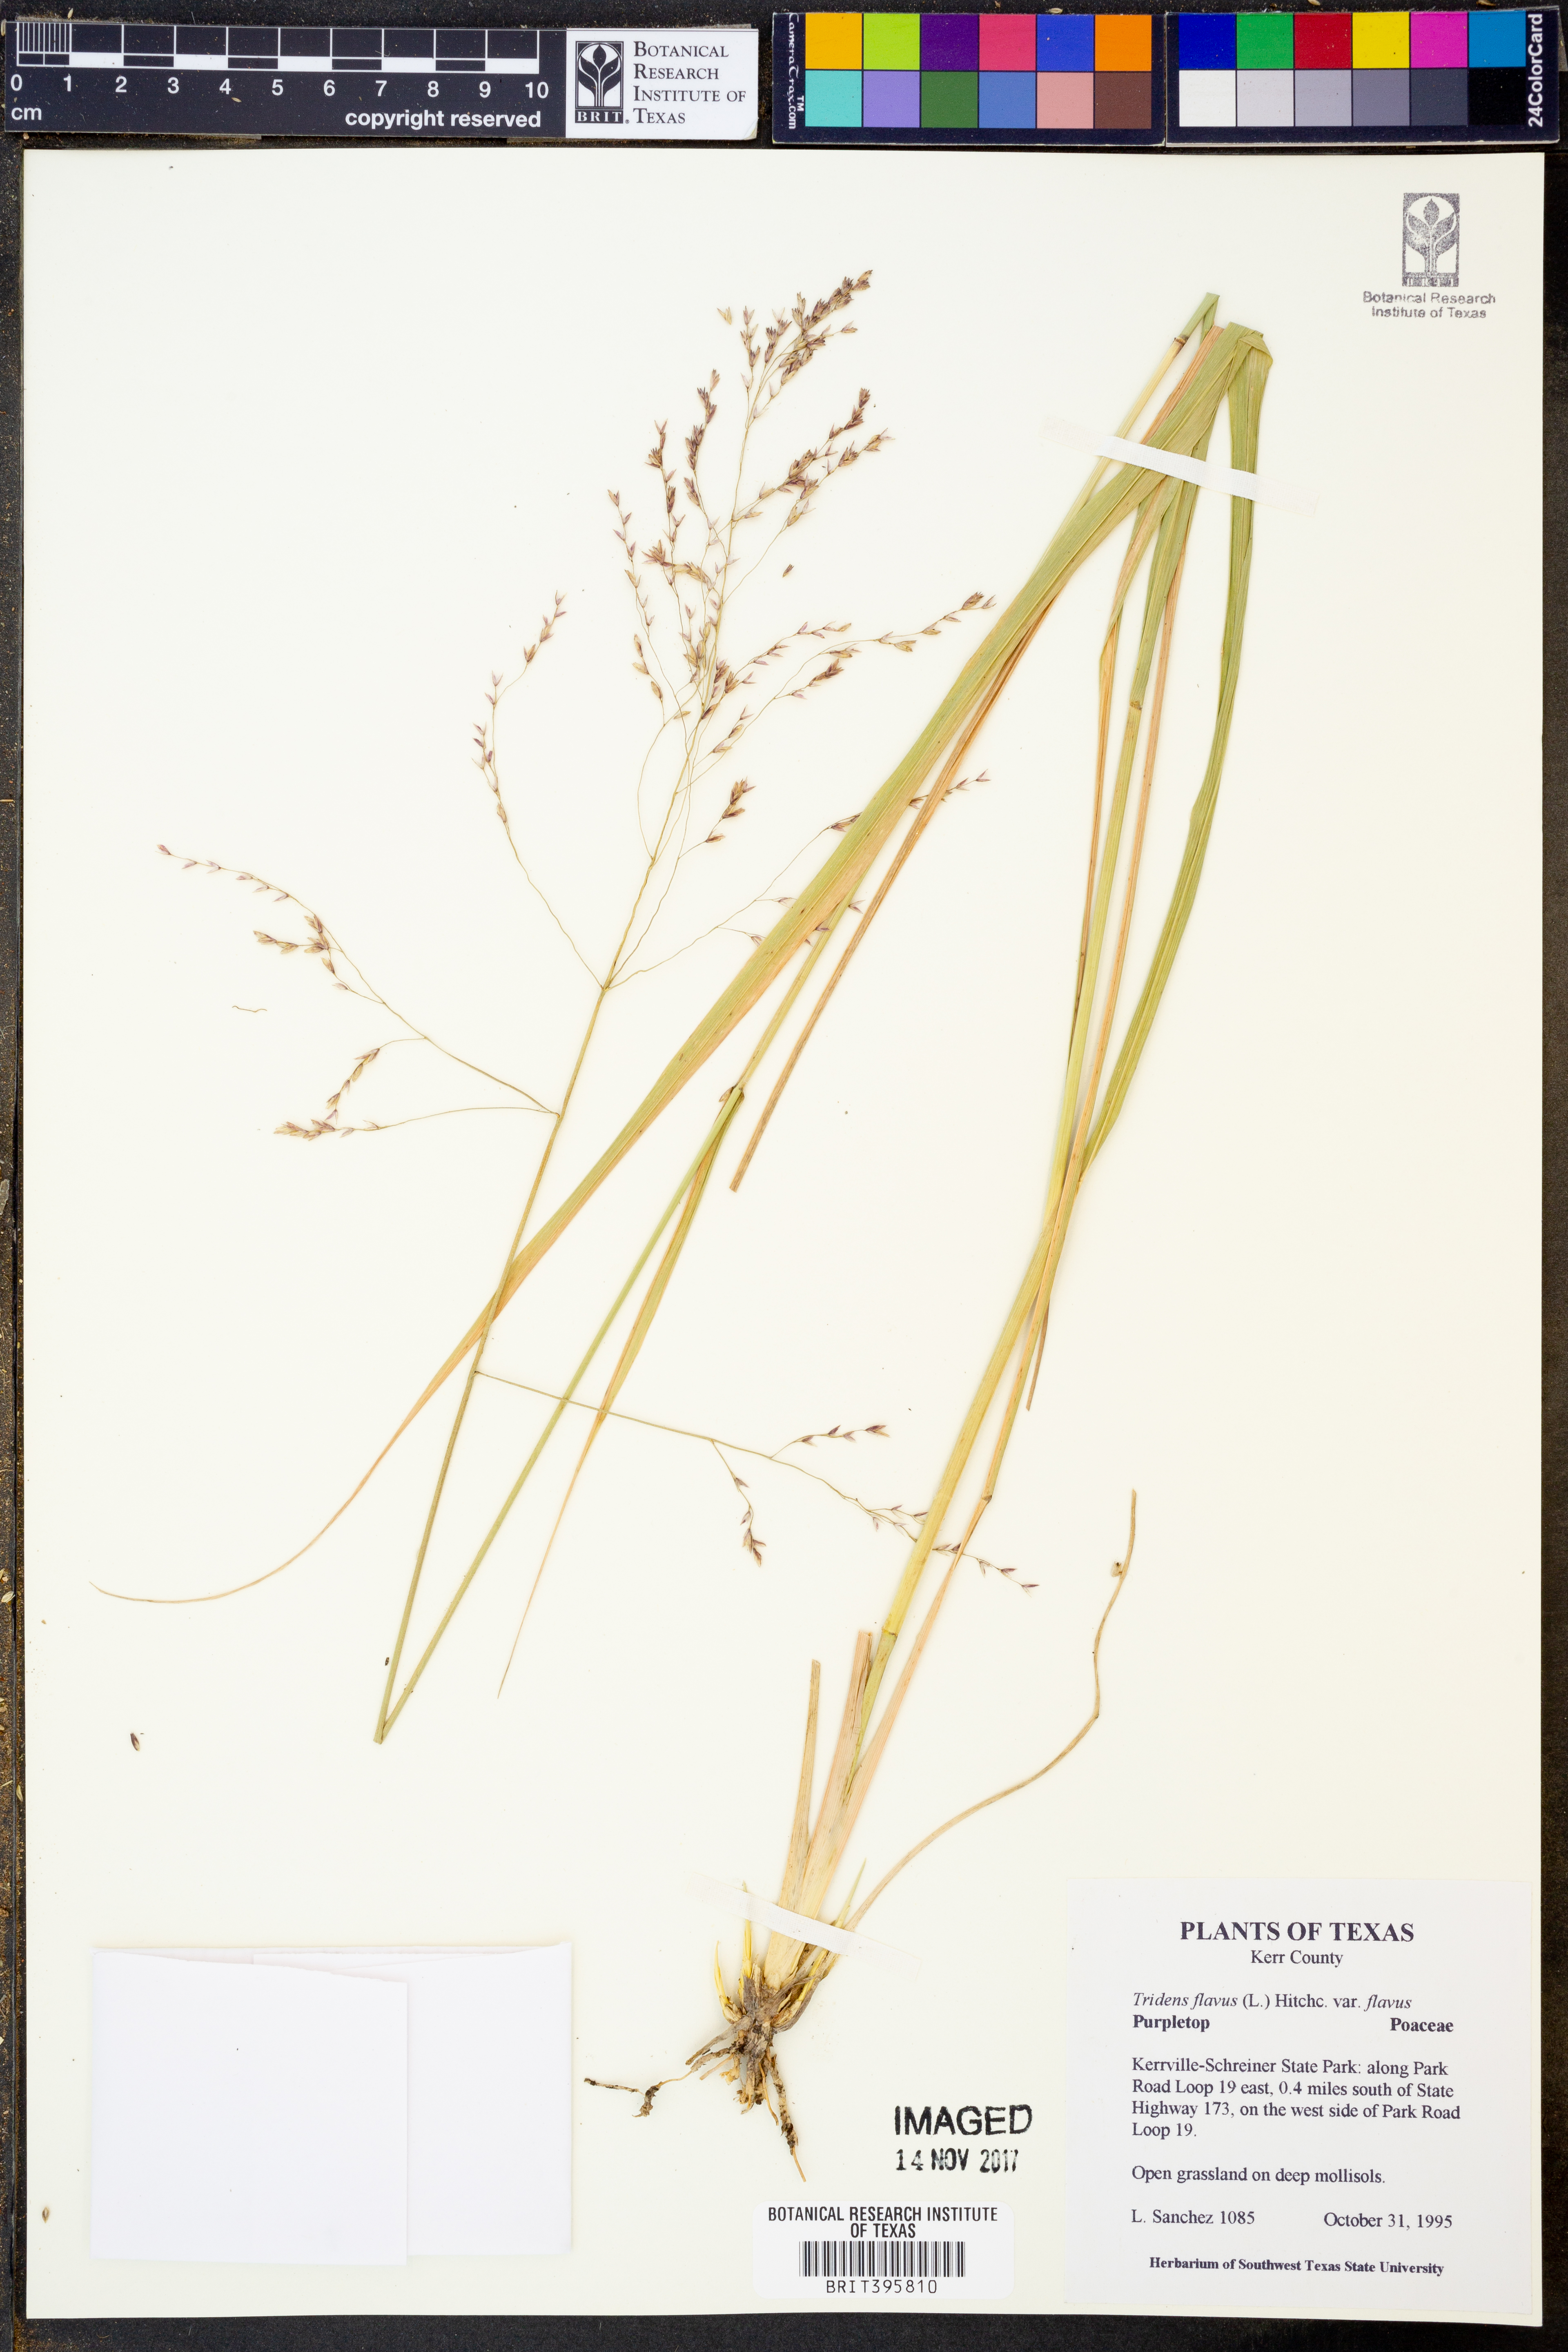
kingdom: Plantae
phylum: Tracheophyta
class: Liliopsida
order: Poales
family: Poaceae
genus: Tridens
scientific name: Tridens flavus
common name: Purpletop
